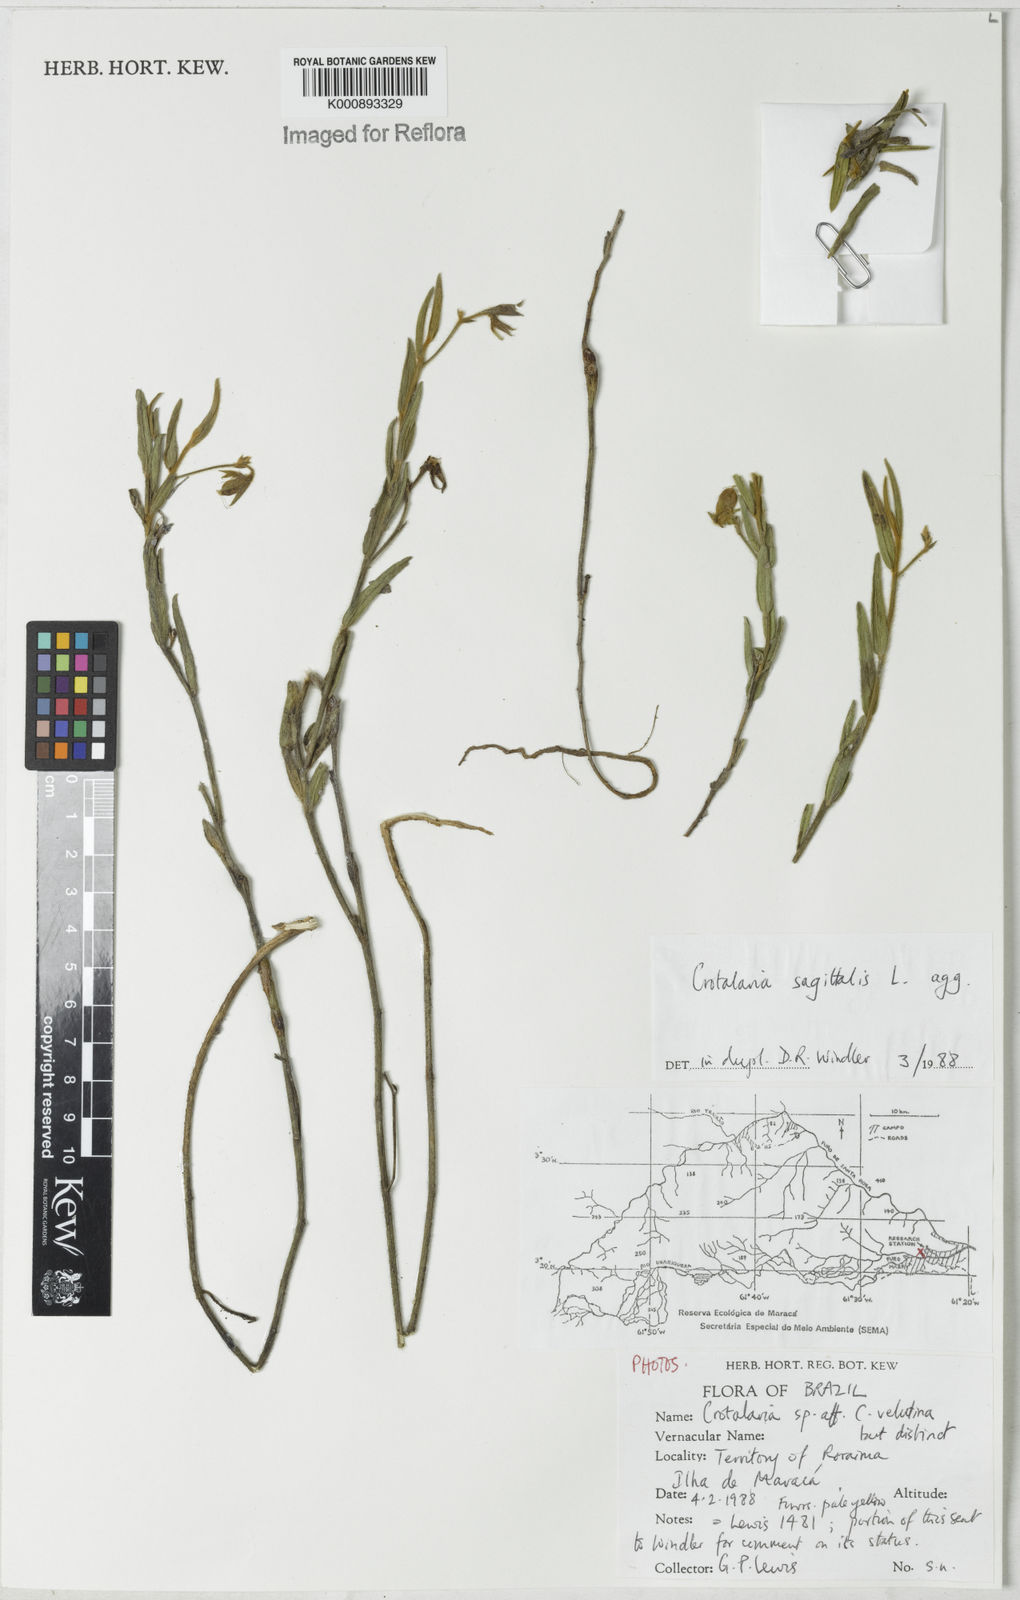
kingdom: Plantae
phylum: Tracheophyta
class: Magnoliopsida
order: Fabales
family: Fabaceae
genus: Crotalaria
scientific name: Crotalaria sagittalis
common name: Arrowhead rattlebox
